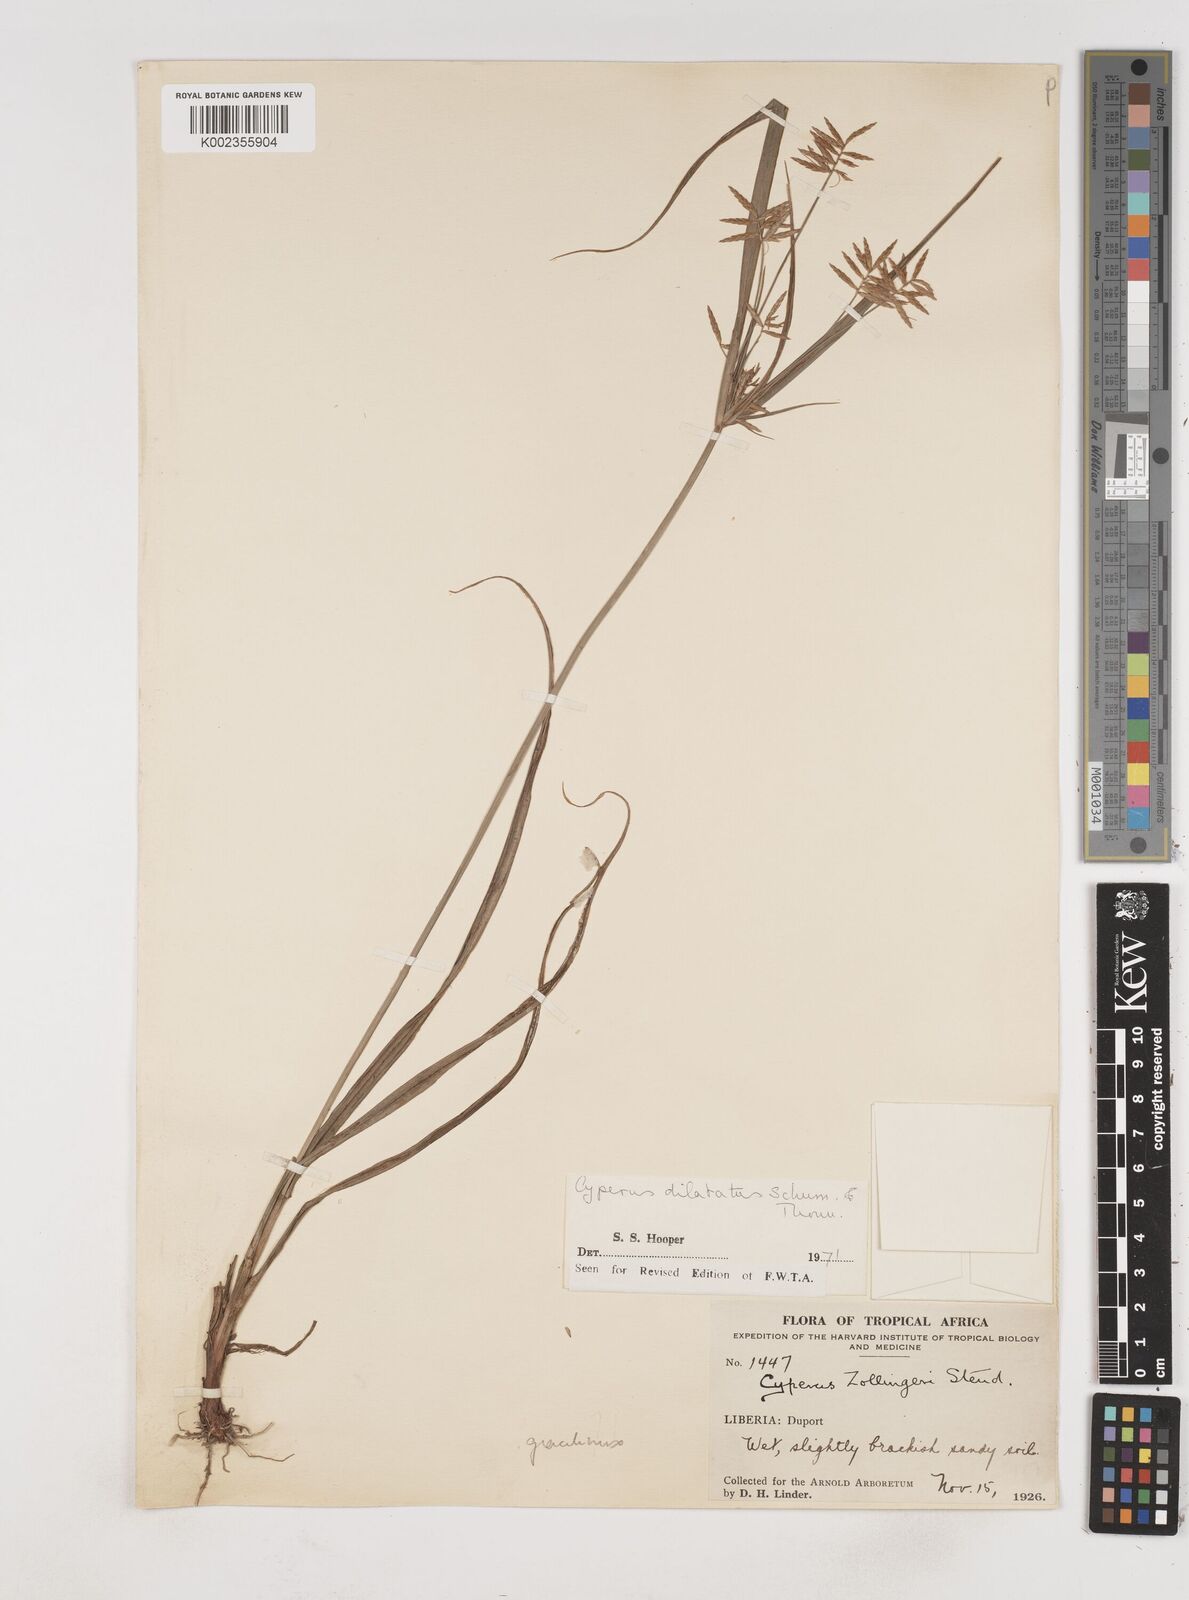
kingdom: Plantae
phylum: Tracheophyta
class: Liliopsida
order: Poales
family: Cyperaceae
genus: Cyperus
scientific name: Cyperus dilatatus
